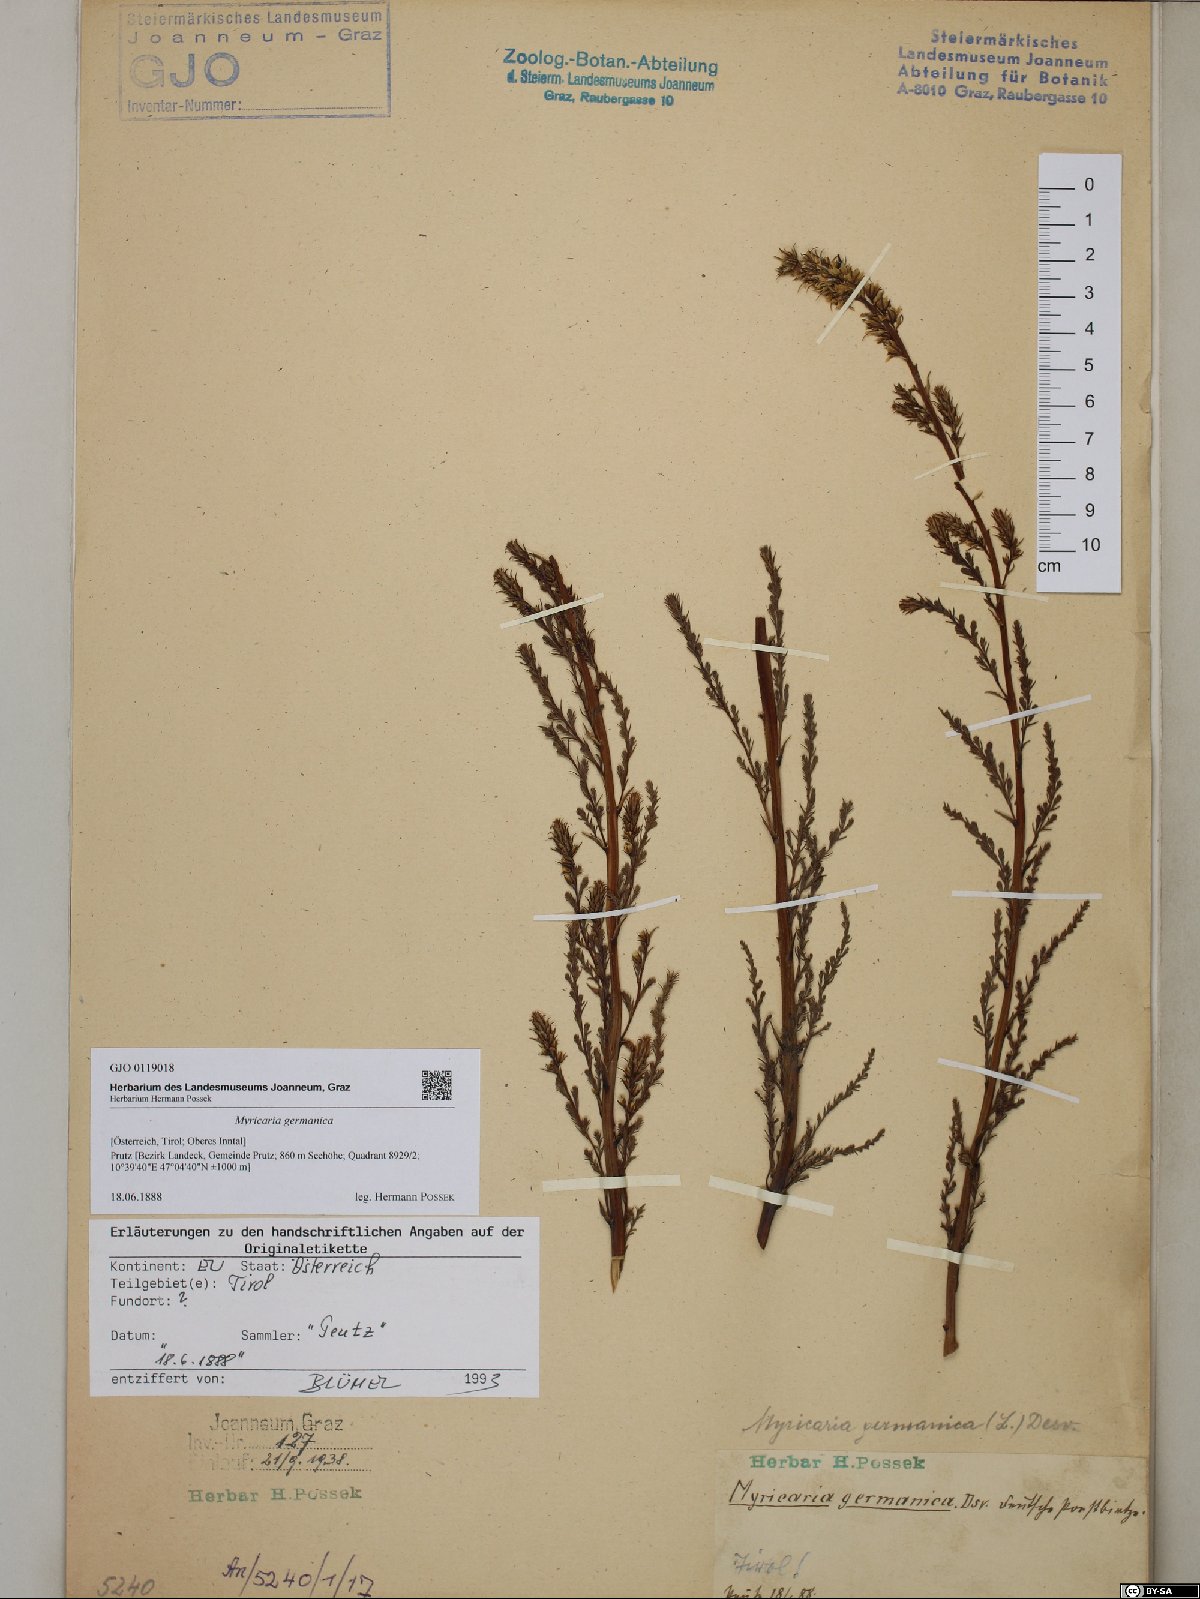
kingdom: Plantae
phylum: Tracheophyta
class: Magnoliopsida
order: Caryophyllales
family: Tamaricaceae
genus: Myricaria
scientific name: Myricaria germanica
